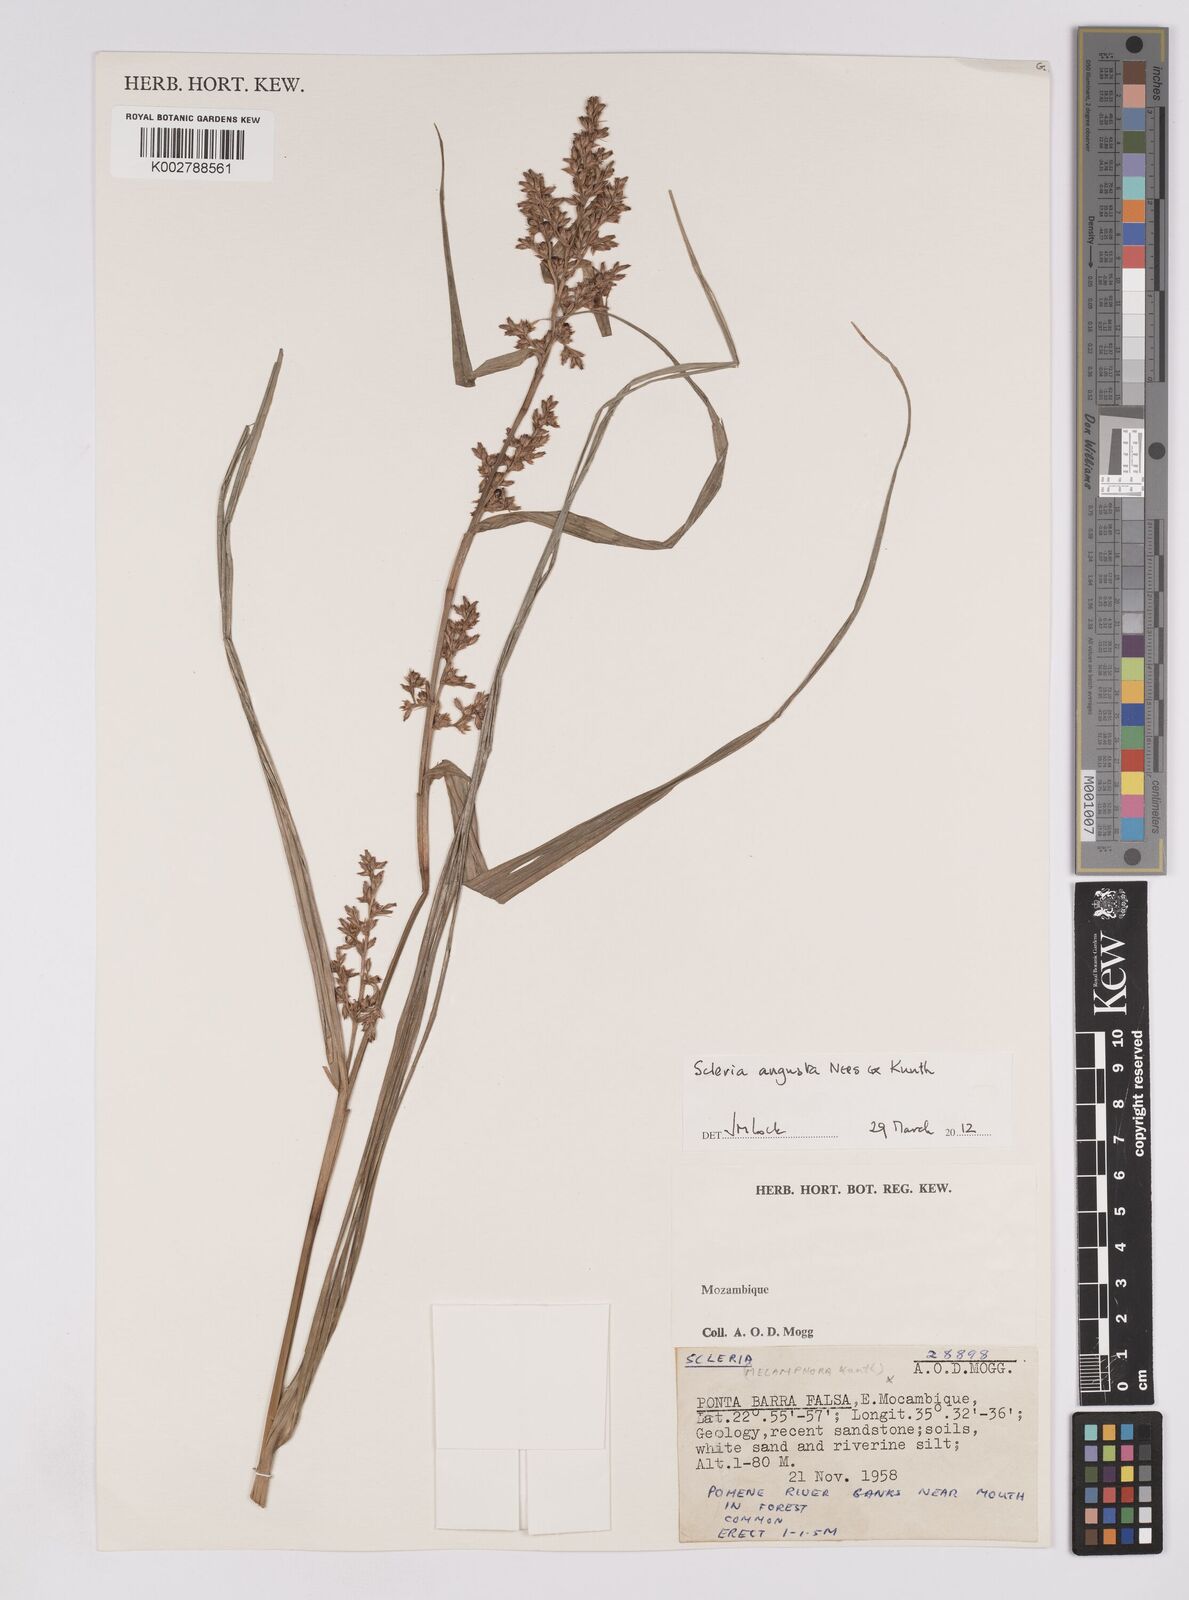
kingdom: Plantae
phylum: Tracheophyta
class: Liliopsida
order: Poales
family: Cyperaceae
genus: Scleria
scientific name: Scleria angusta
